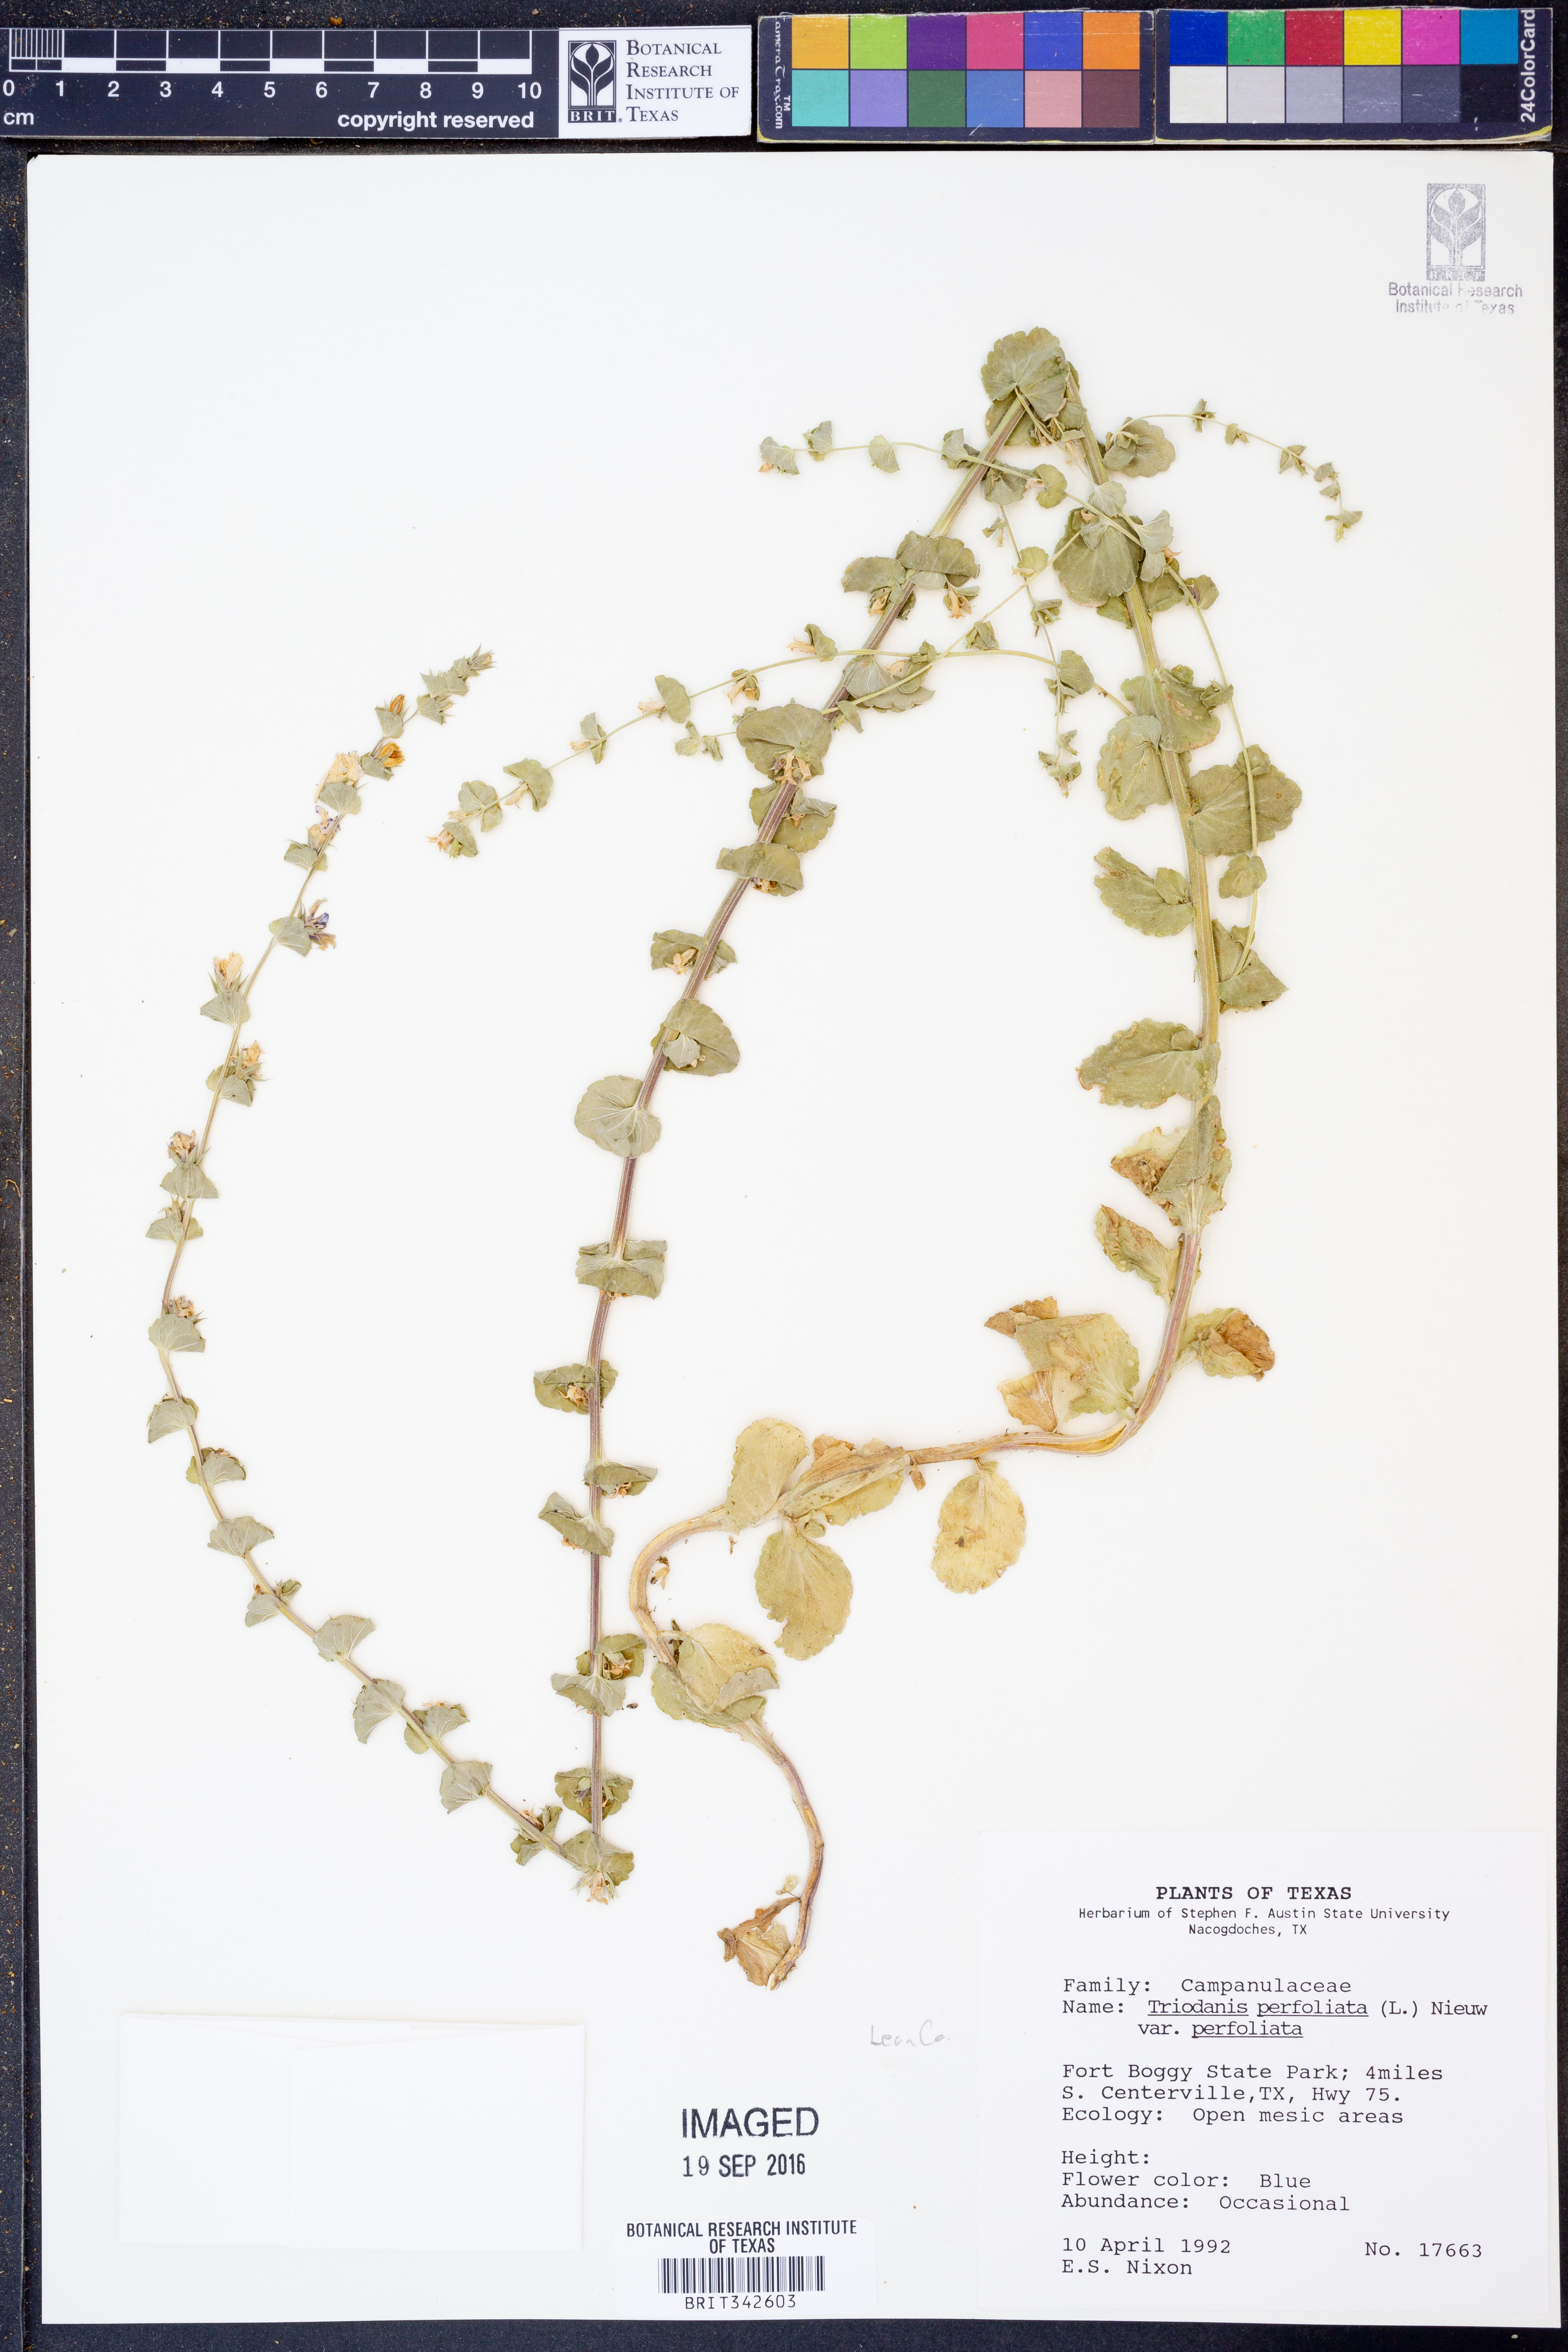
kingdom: Plantae
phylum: Tracheophyta
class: Magnoliopsida
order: Asterales
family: Campanulaceae
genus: Triodanis
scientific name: Triodanis perfoliata
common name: Clasping venus' looking-glass
